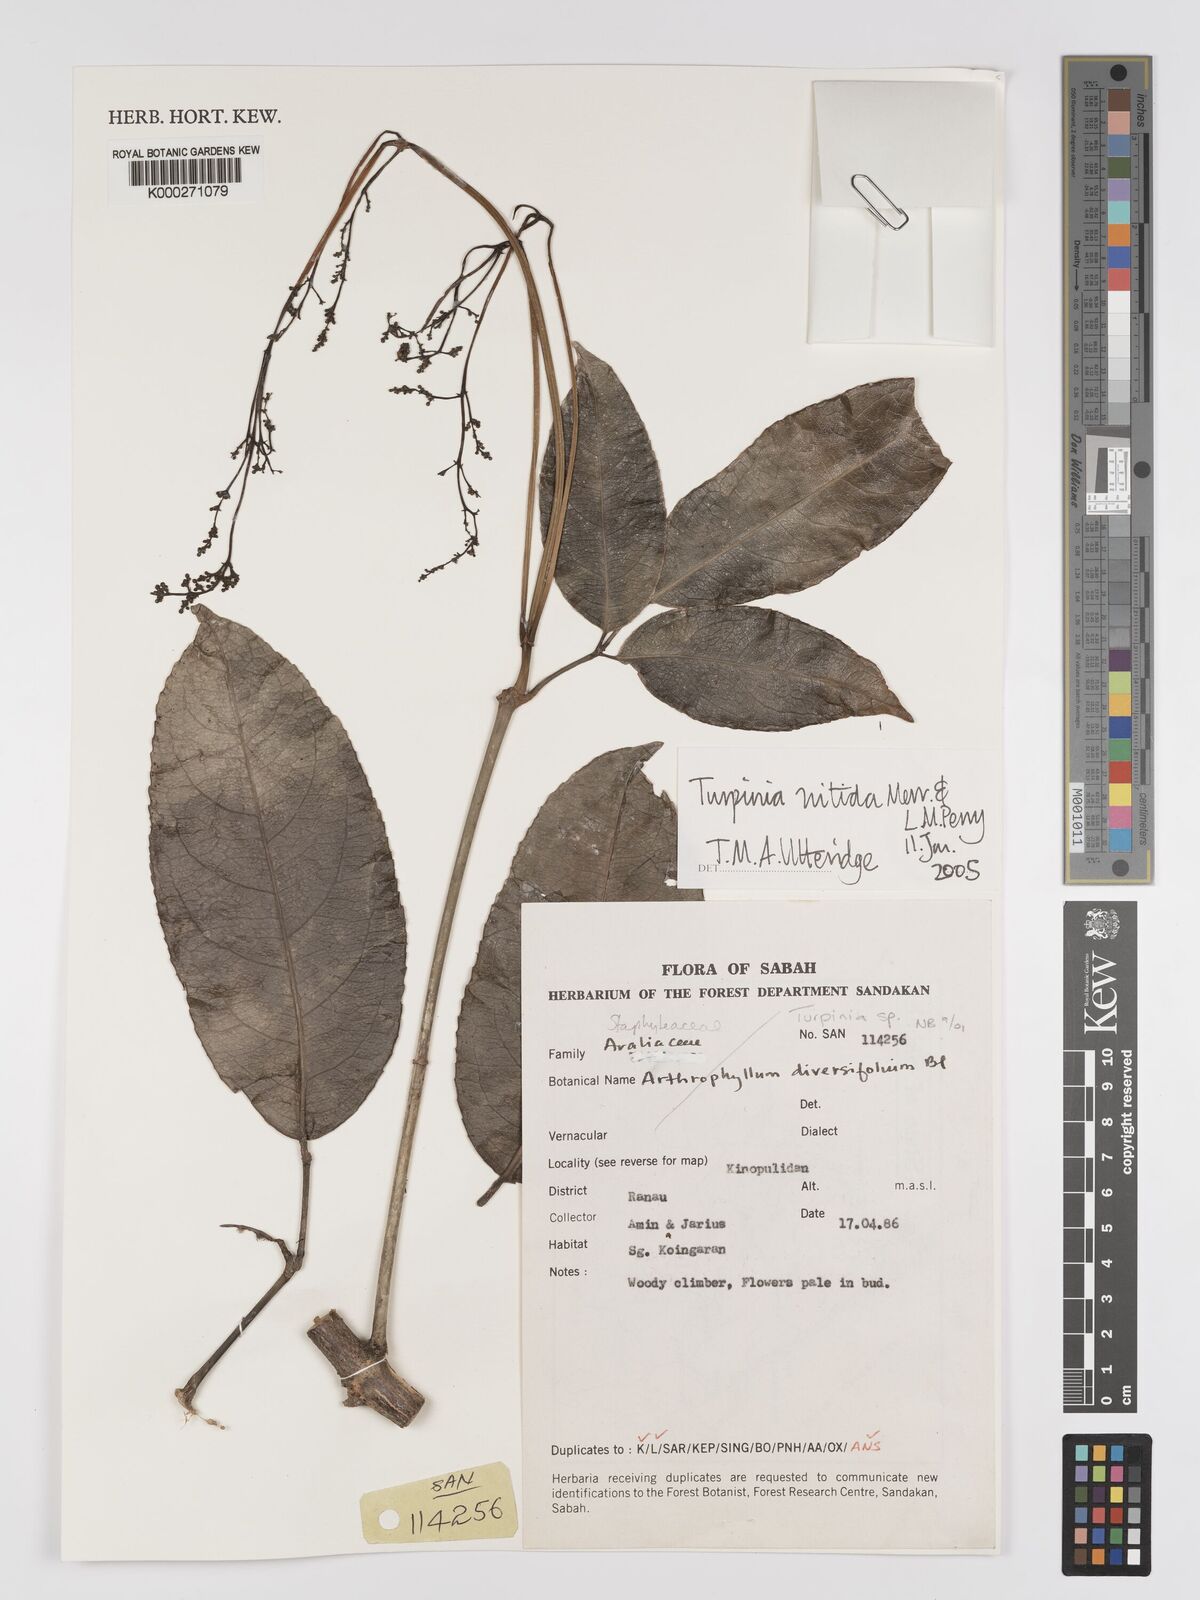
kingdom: Plantae
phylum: Tracheophyta
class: Magnoliopsida
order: Crossosomatales
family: Staphyleaceae
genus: Dalrympelea
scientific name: Dalrympelea nitida
